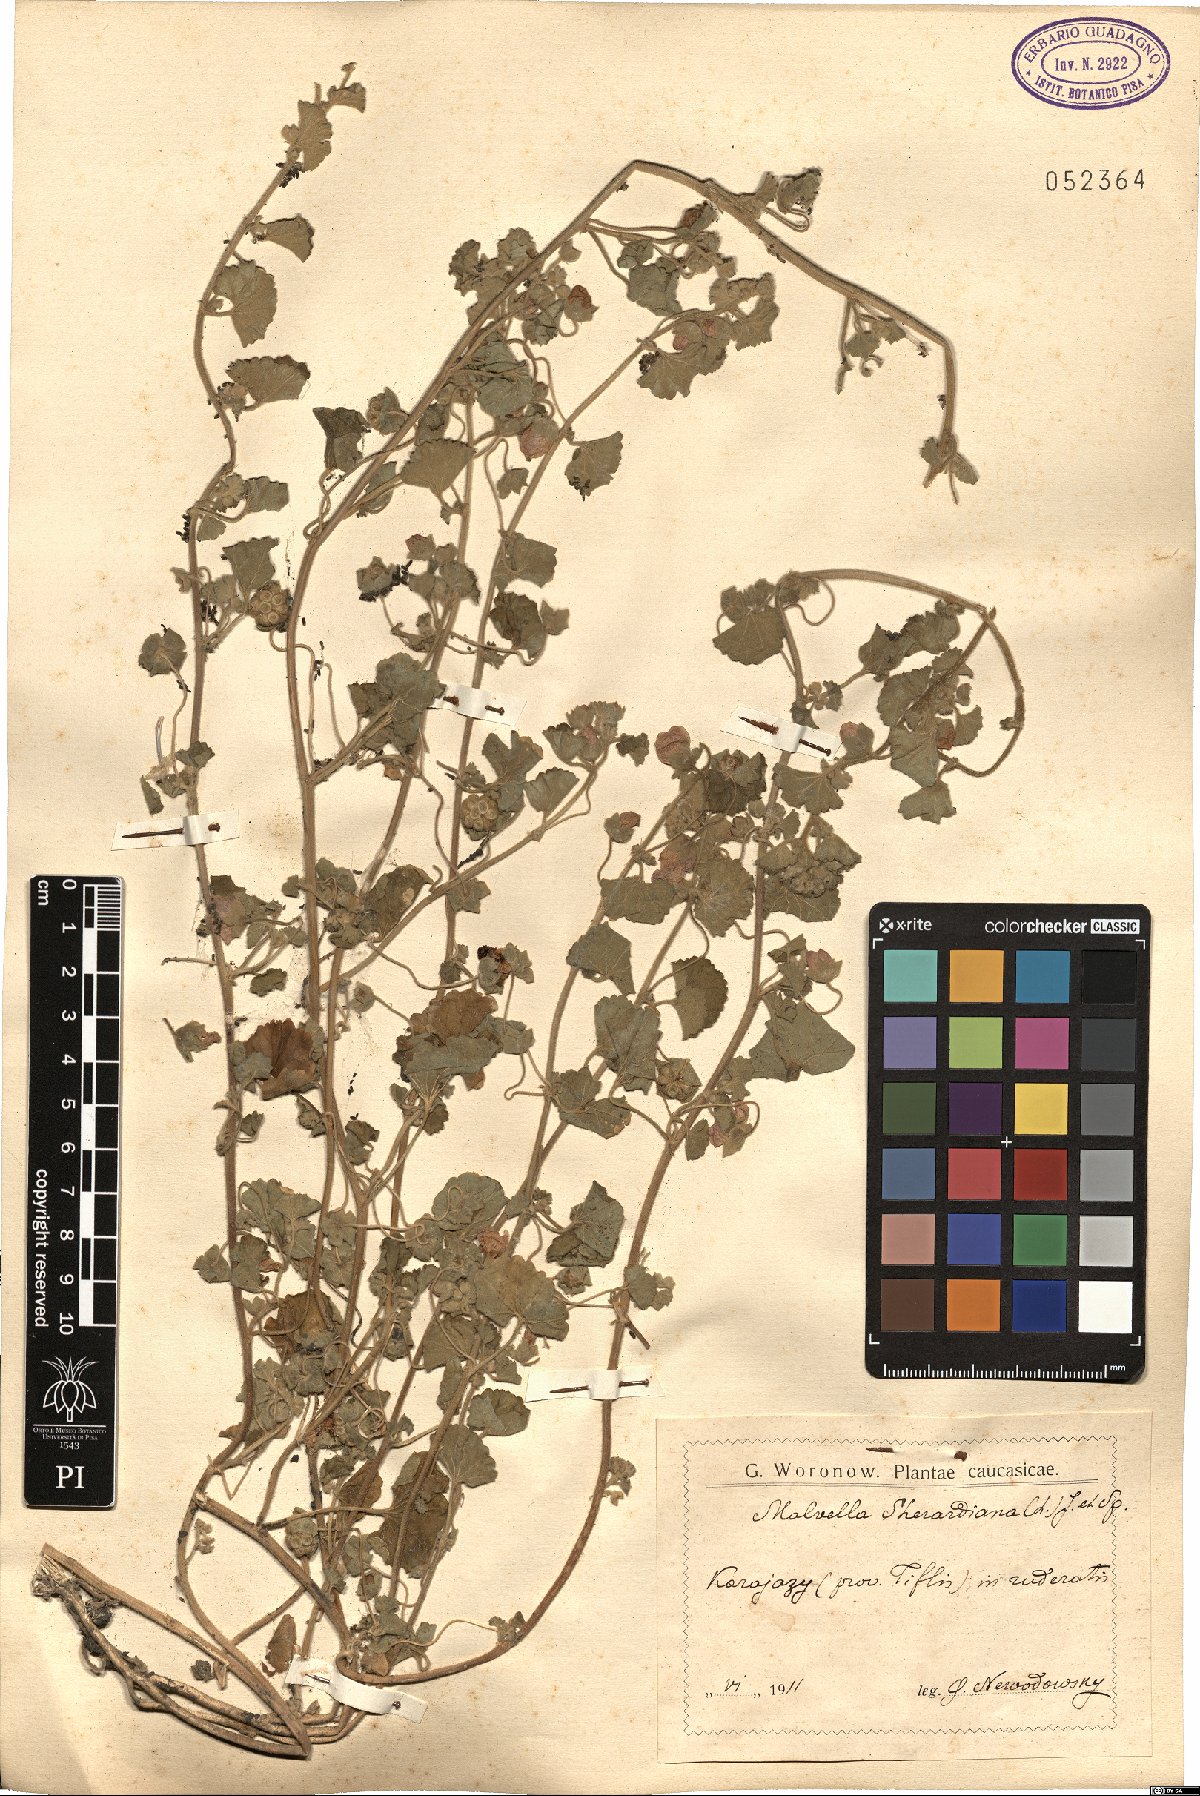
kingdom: Plantae
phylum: Tracheophyta
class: Magnoliopsida
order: Malvales
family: Malvaceae
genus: Malvella
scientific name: Malvella sherardiana
